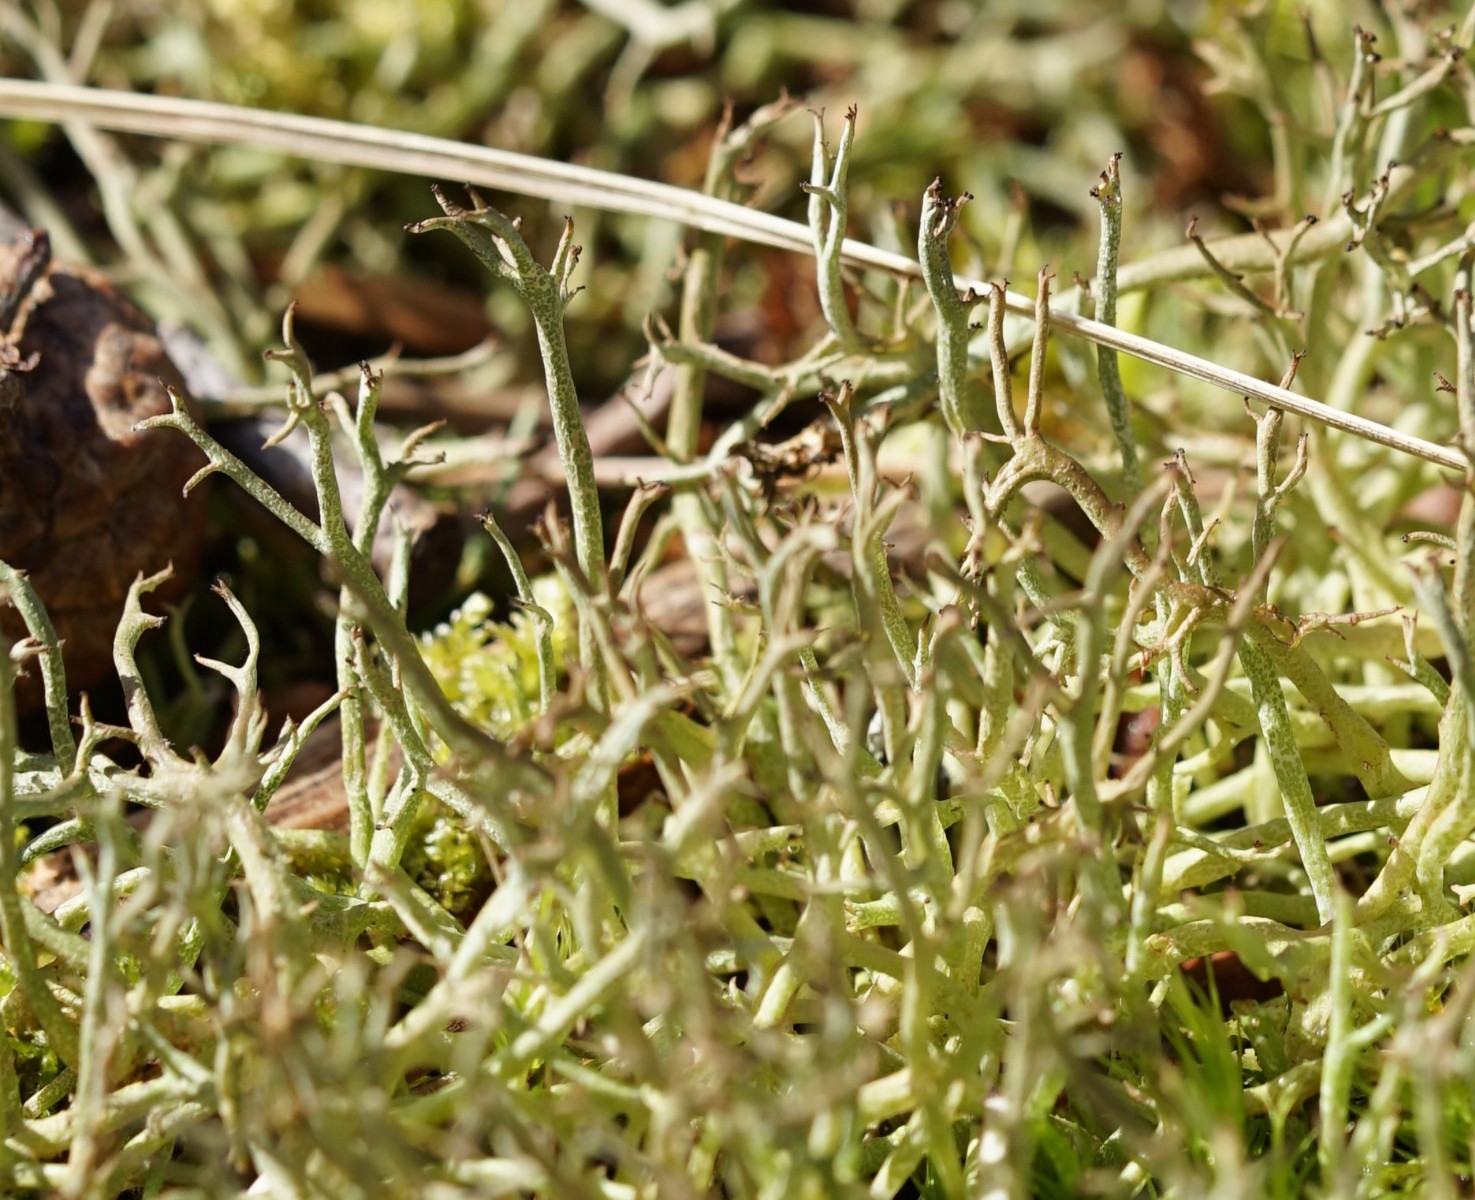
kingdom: Fungi
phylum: Ascomycota
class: Lecanoromycetes
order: Lecanorales
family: Cladoniaceae
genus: Cladonia
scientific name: Cladonia furcata
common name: kløftet bægerlav
